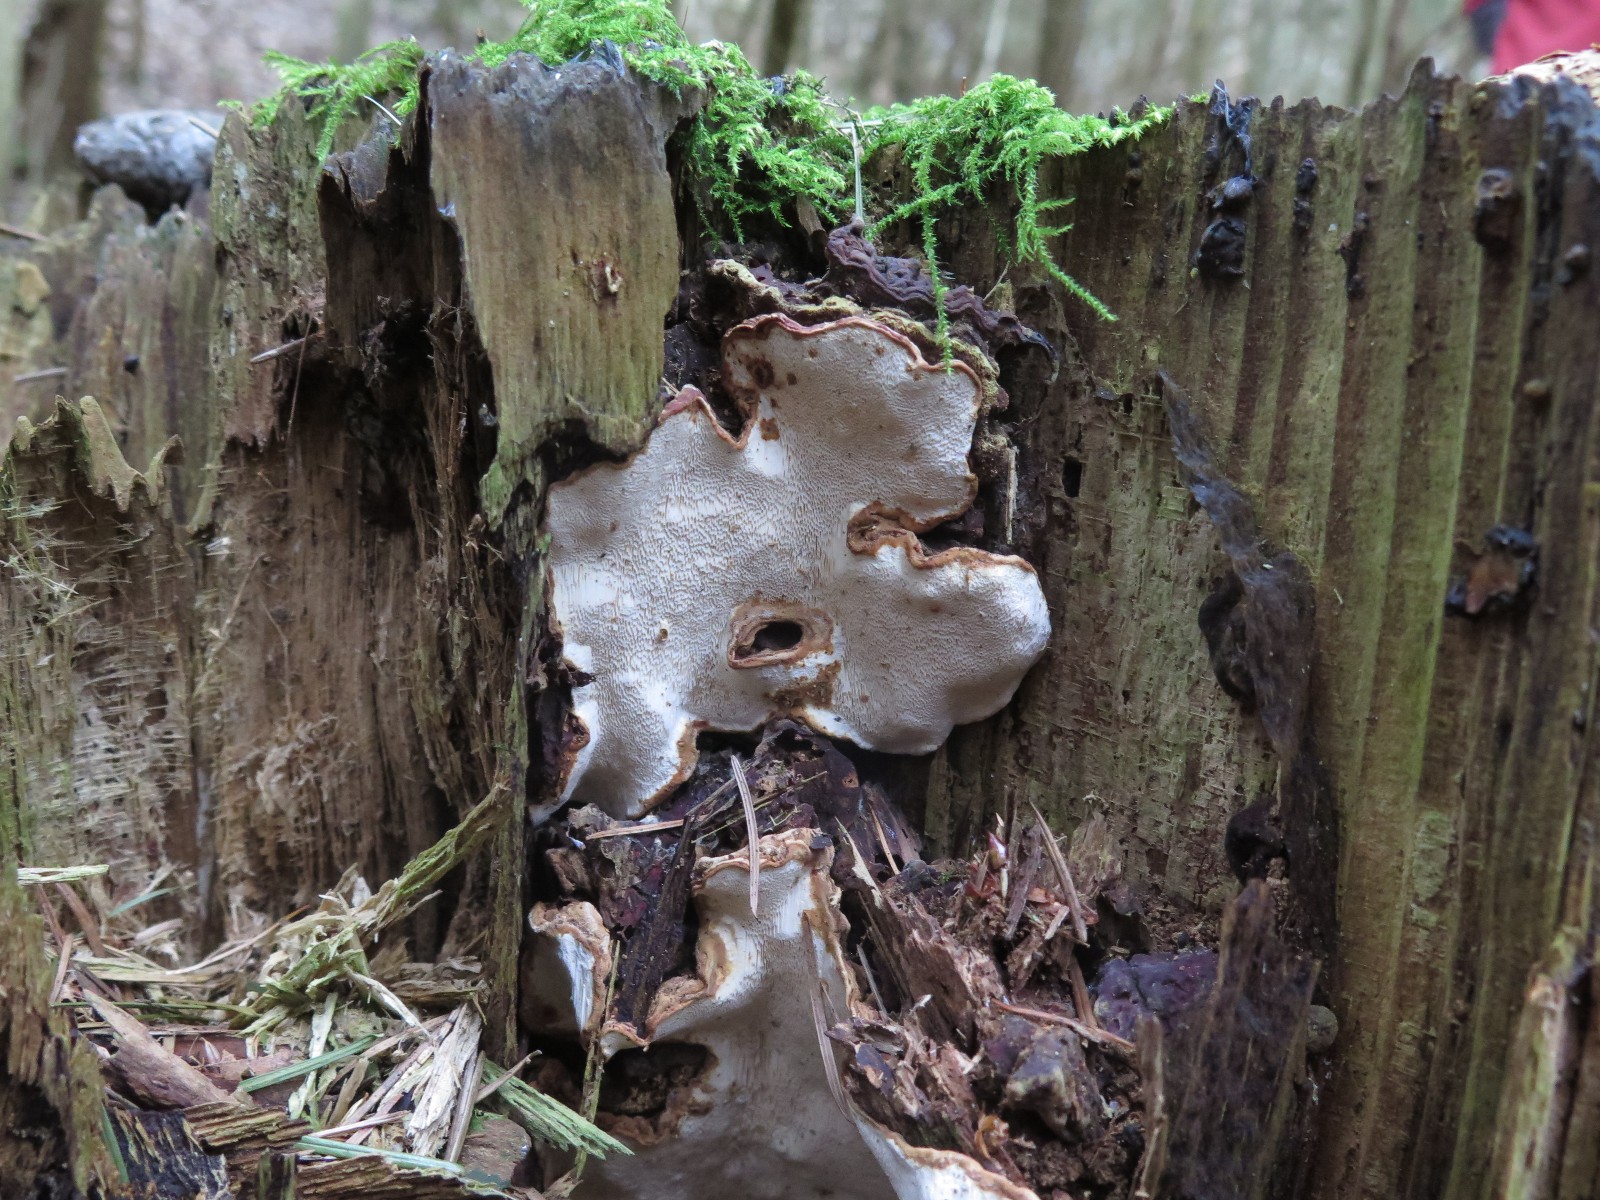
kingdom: Fungi
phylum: Basidiomycota
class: Agaricomycetes
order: Russulales
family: Bondarzewiaceae
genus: Heterobasidion
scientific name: Heterobasidion annosum
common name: almindelig rodfordærver
